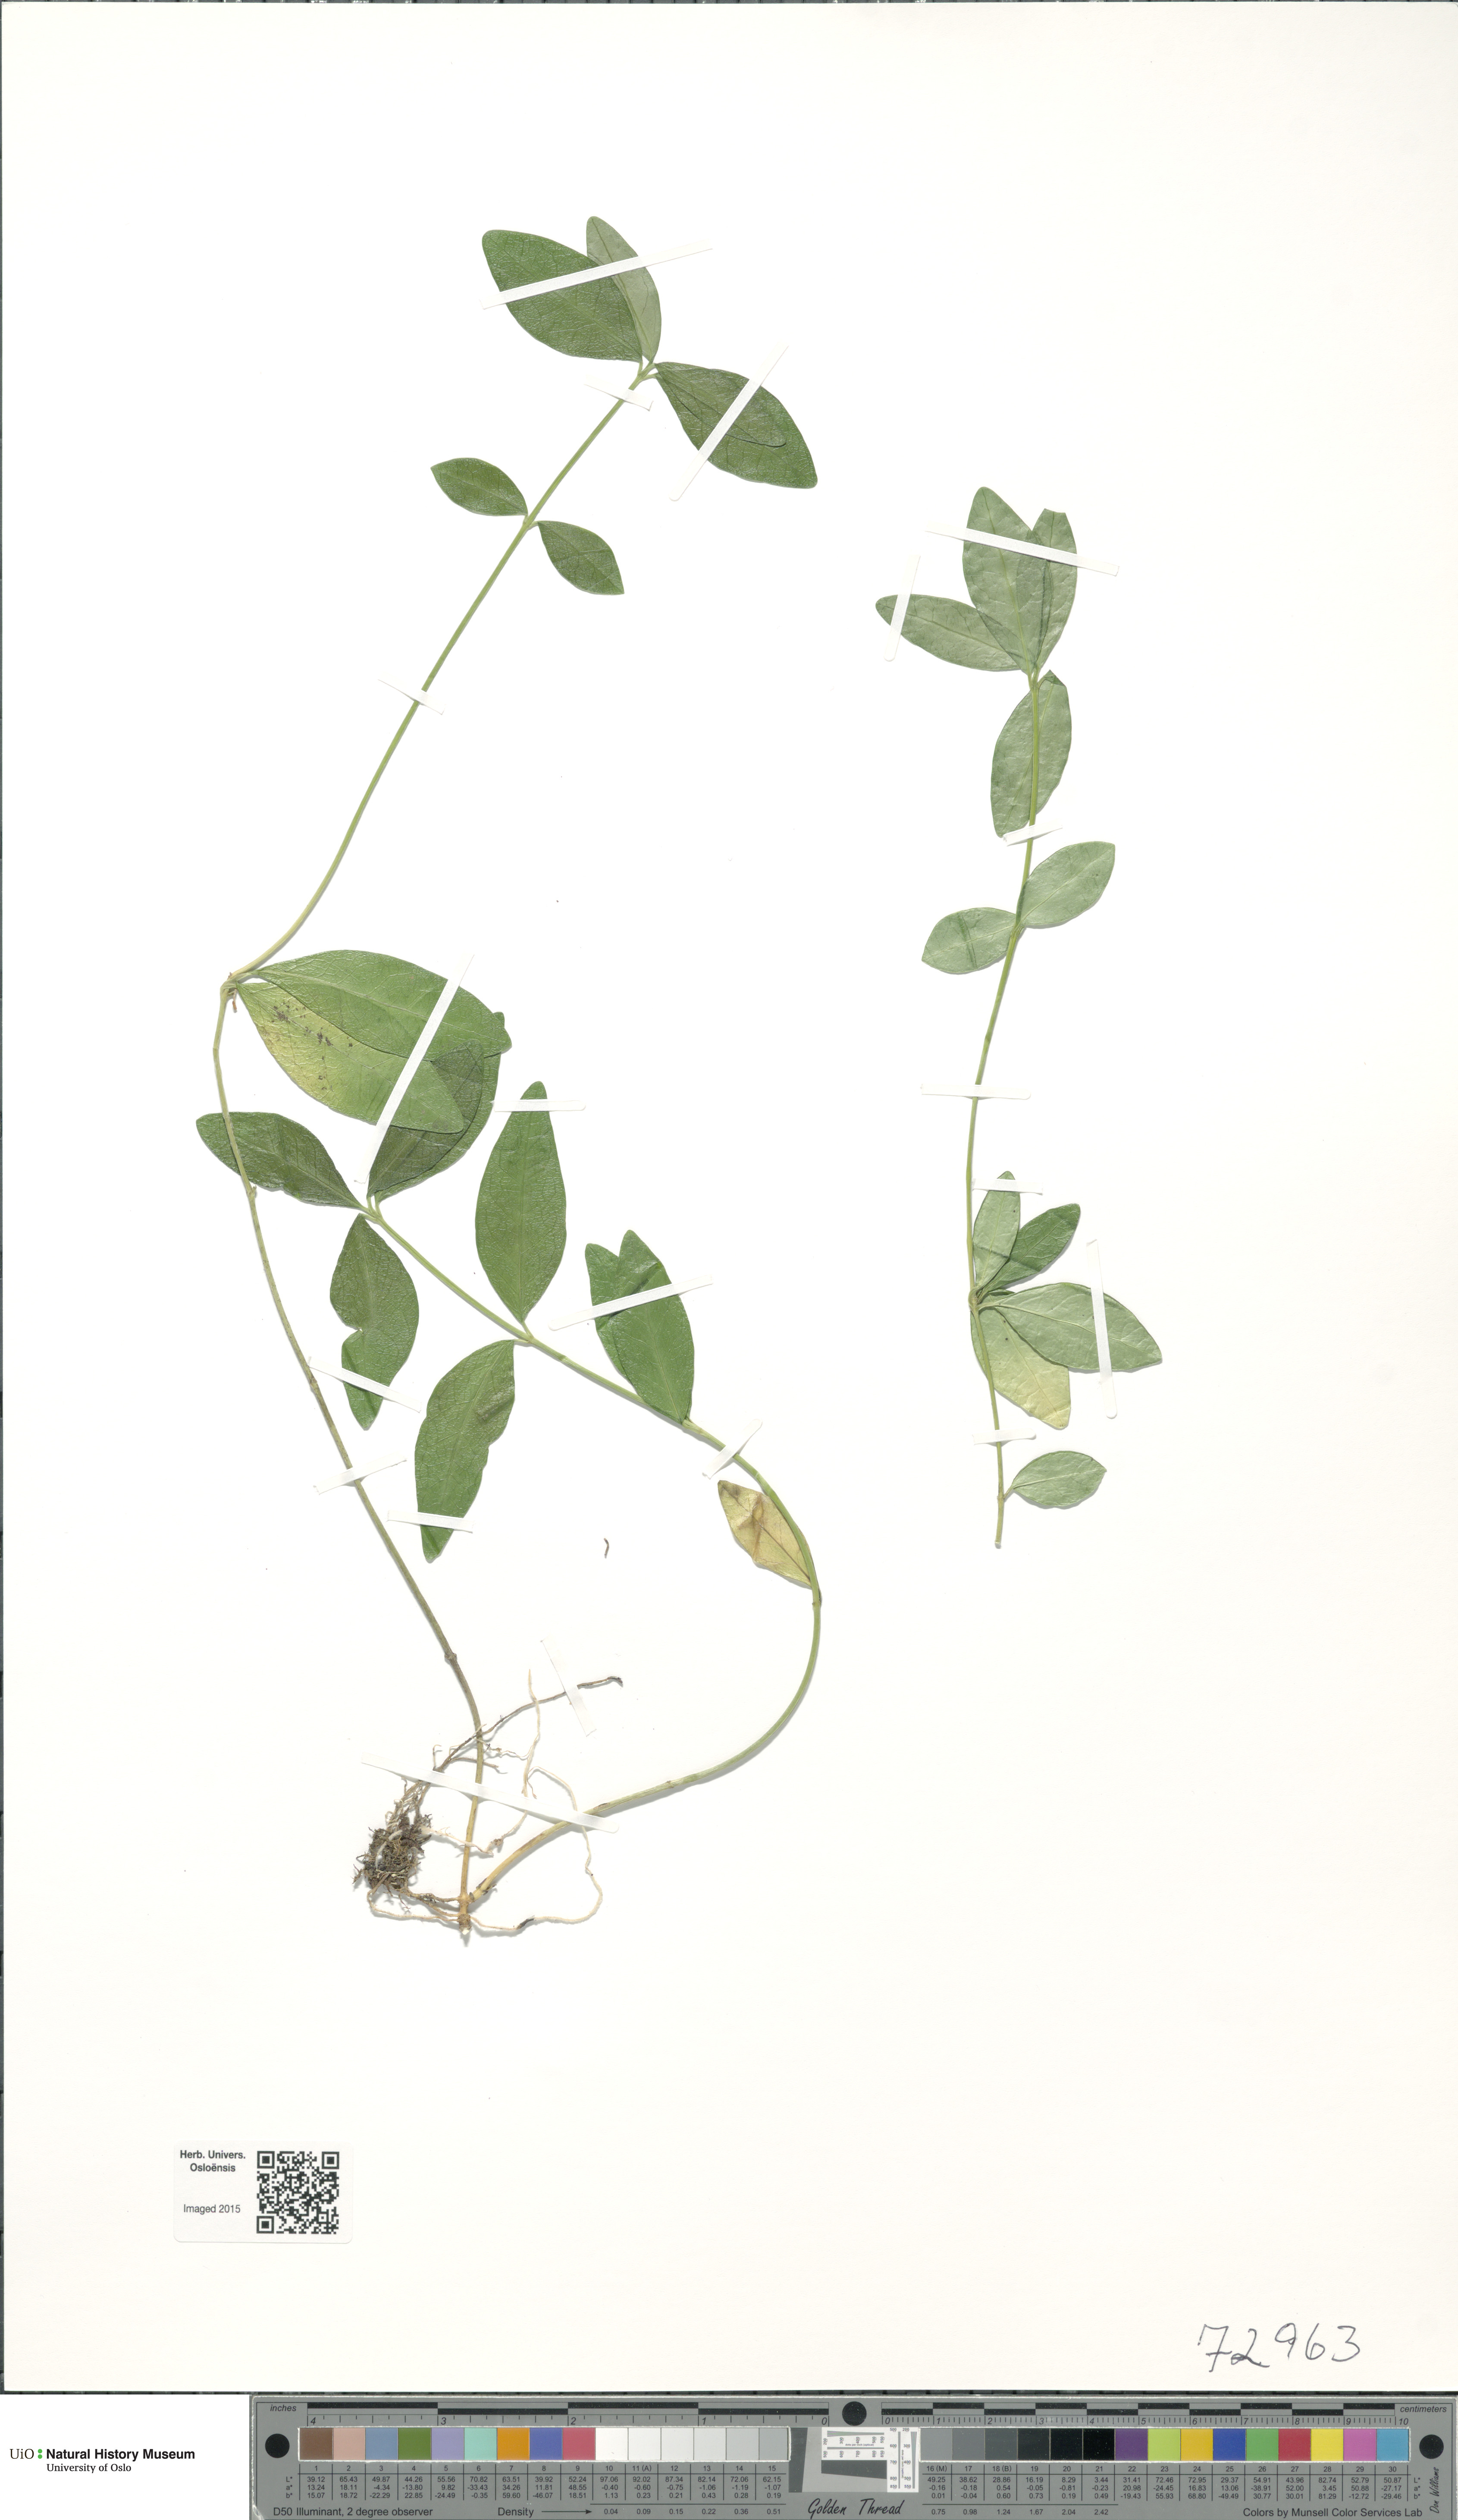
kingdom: Plantae
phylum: Tracheophyta
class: Magnoliopsida
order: Gentianales
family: Apocynaceae
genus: Vinca
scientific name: Vinca minor
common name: Lesser periwinkle
